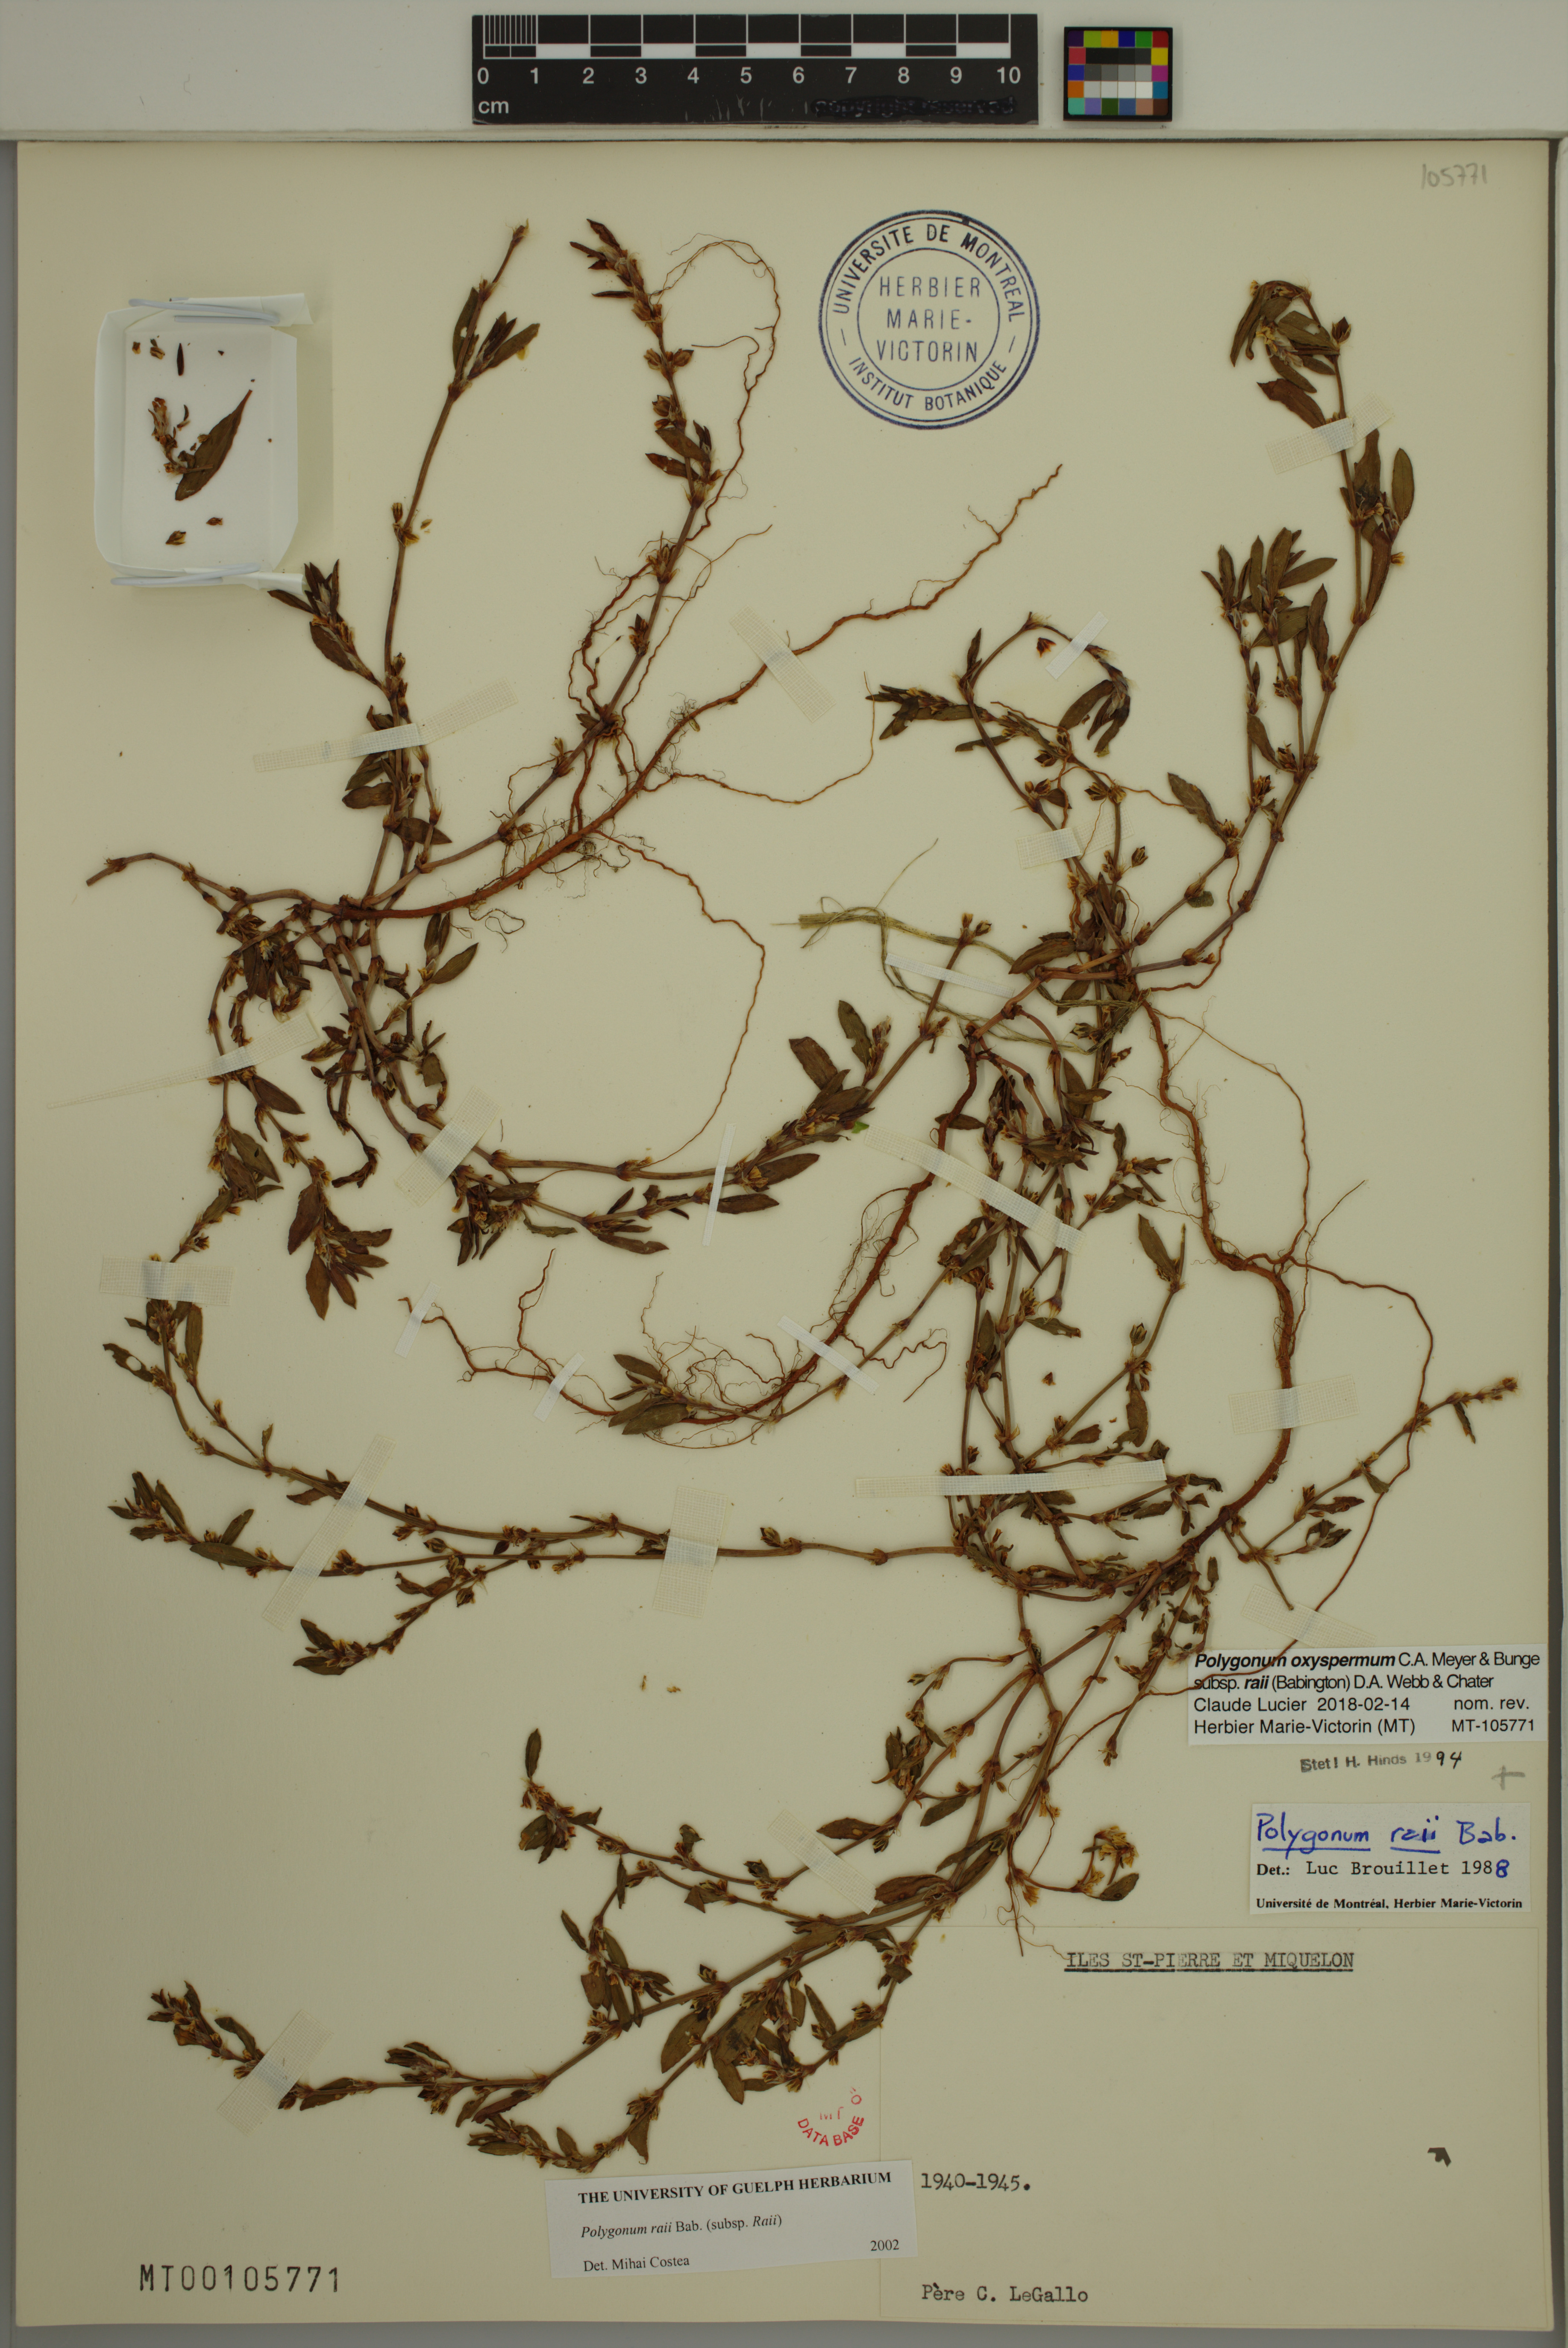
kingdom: Plantae
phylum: Tracheophyta
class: Magnoliopsida
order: Caryophyllales
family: Polygonaceae
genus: Polygonum
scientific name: Polygonum raii
